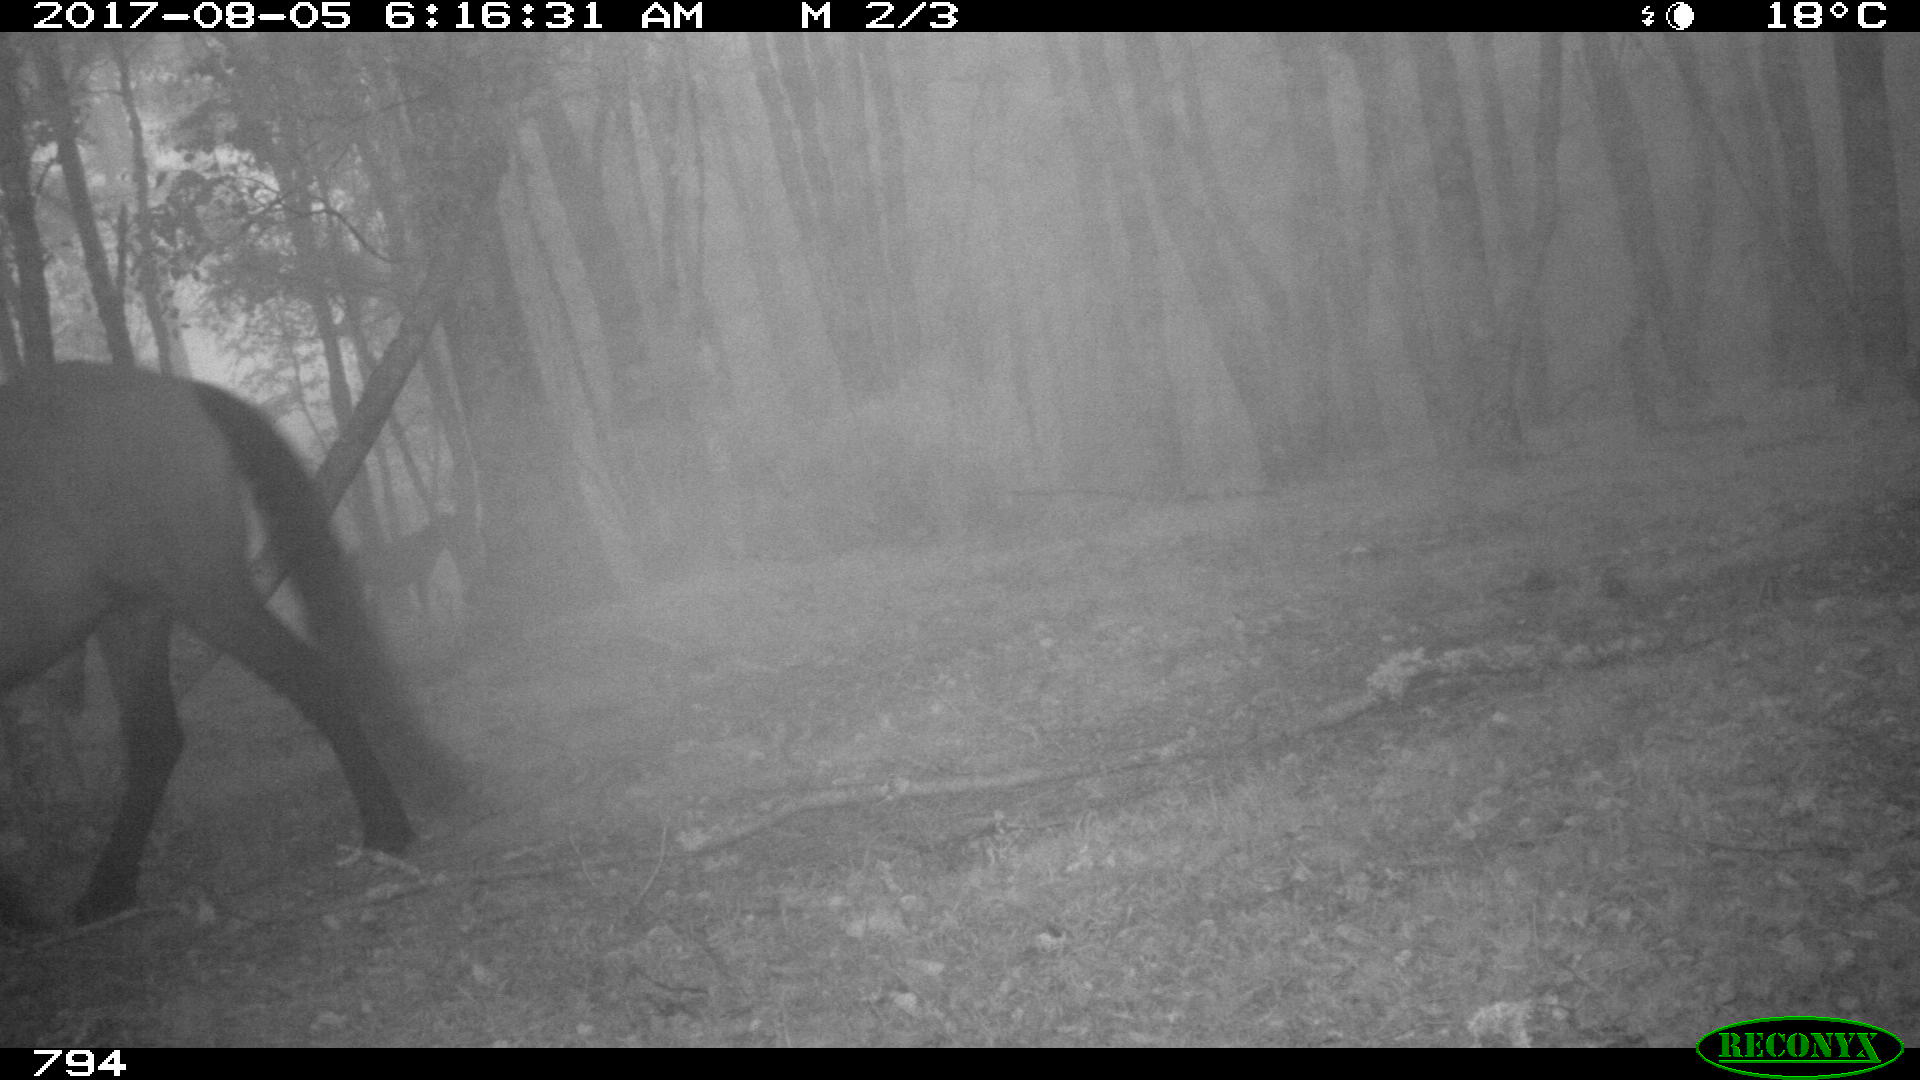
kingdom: Animalia
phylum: Chordata
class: Mammalia
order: Perissodactyla
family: Equidae
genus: Equus
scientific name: Equus caballus
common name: Horse
